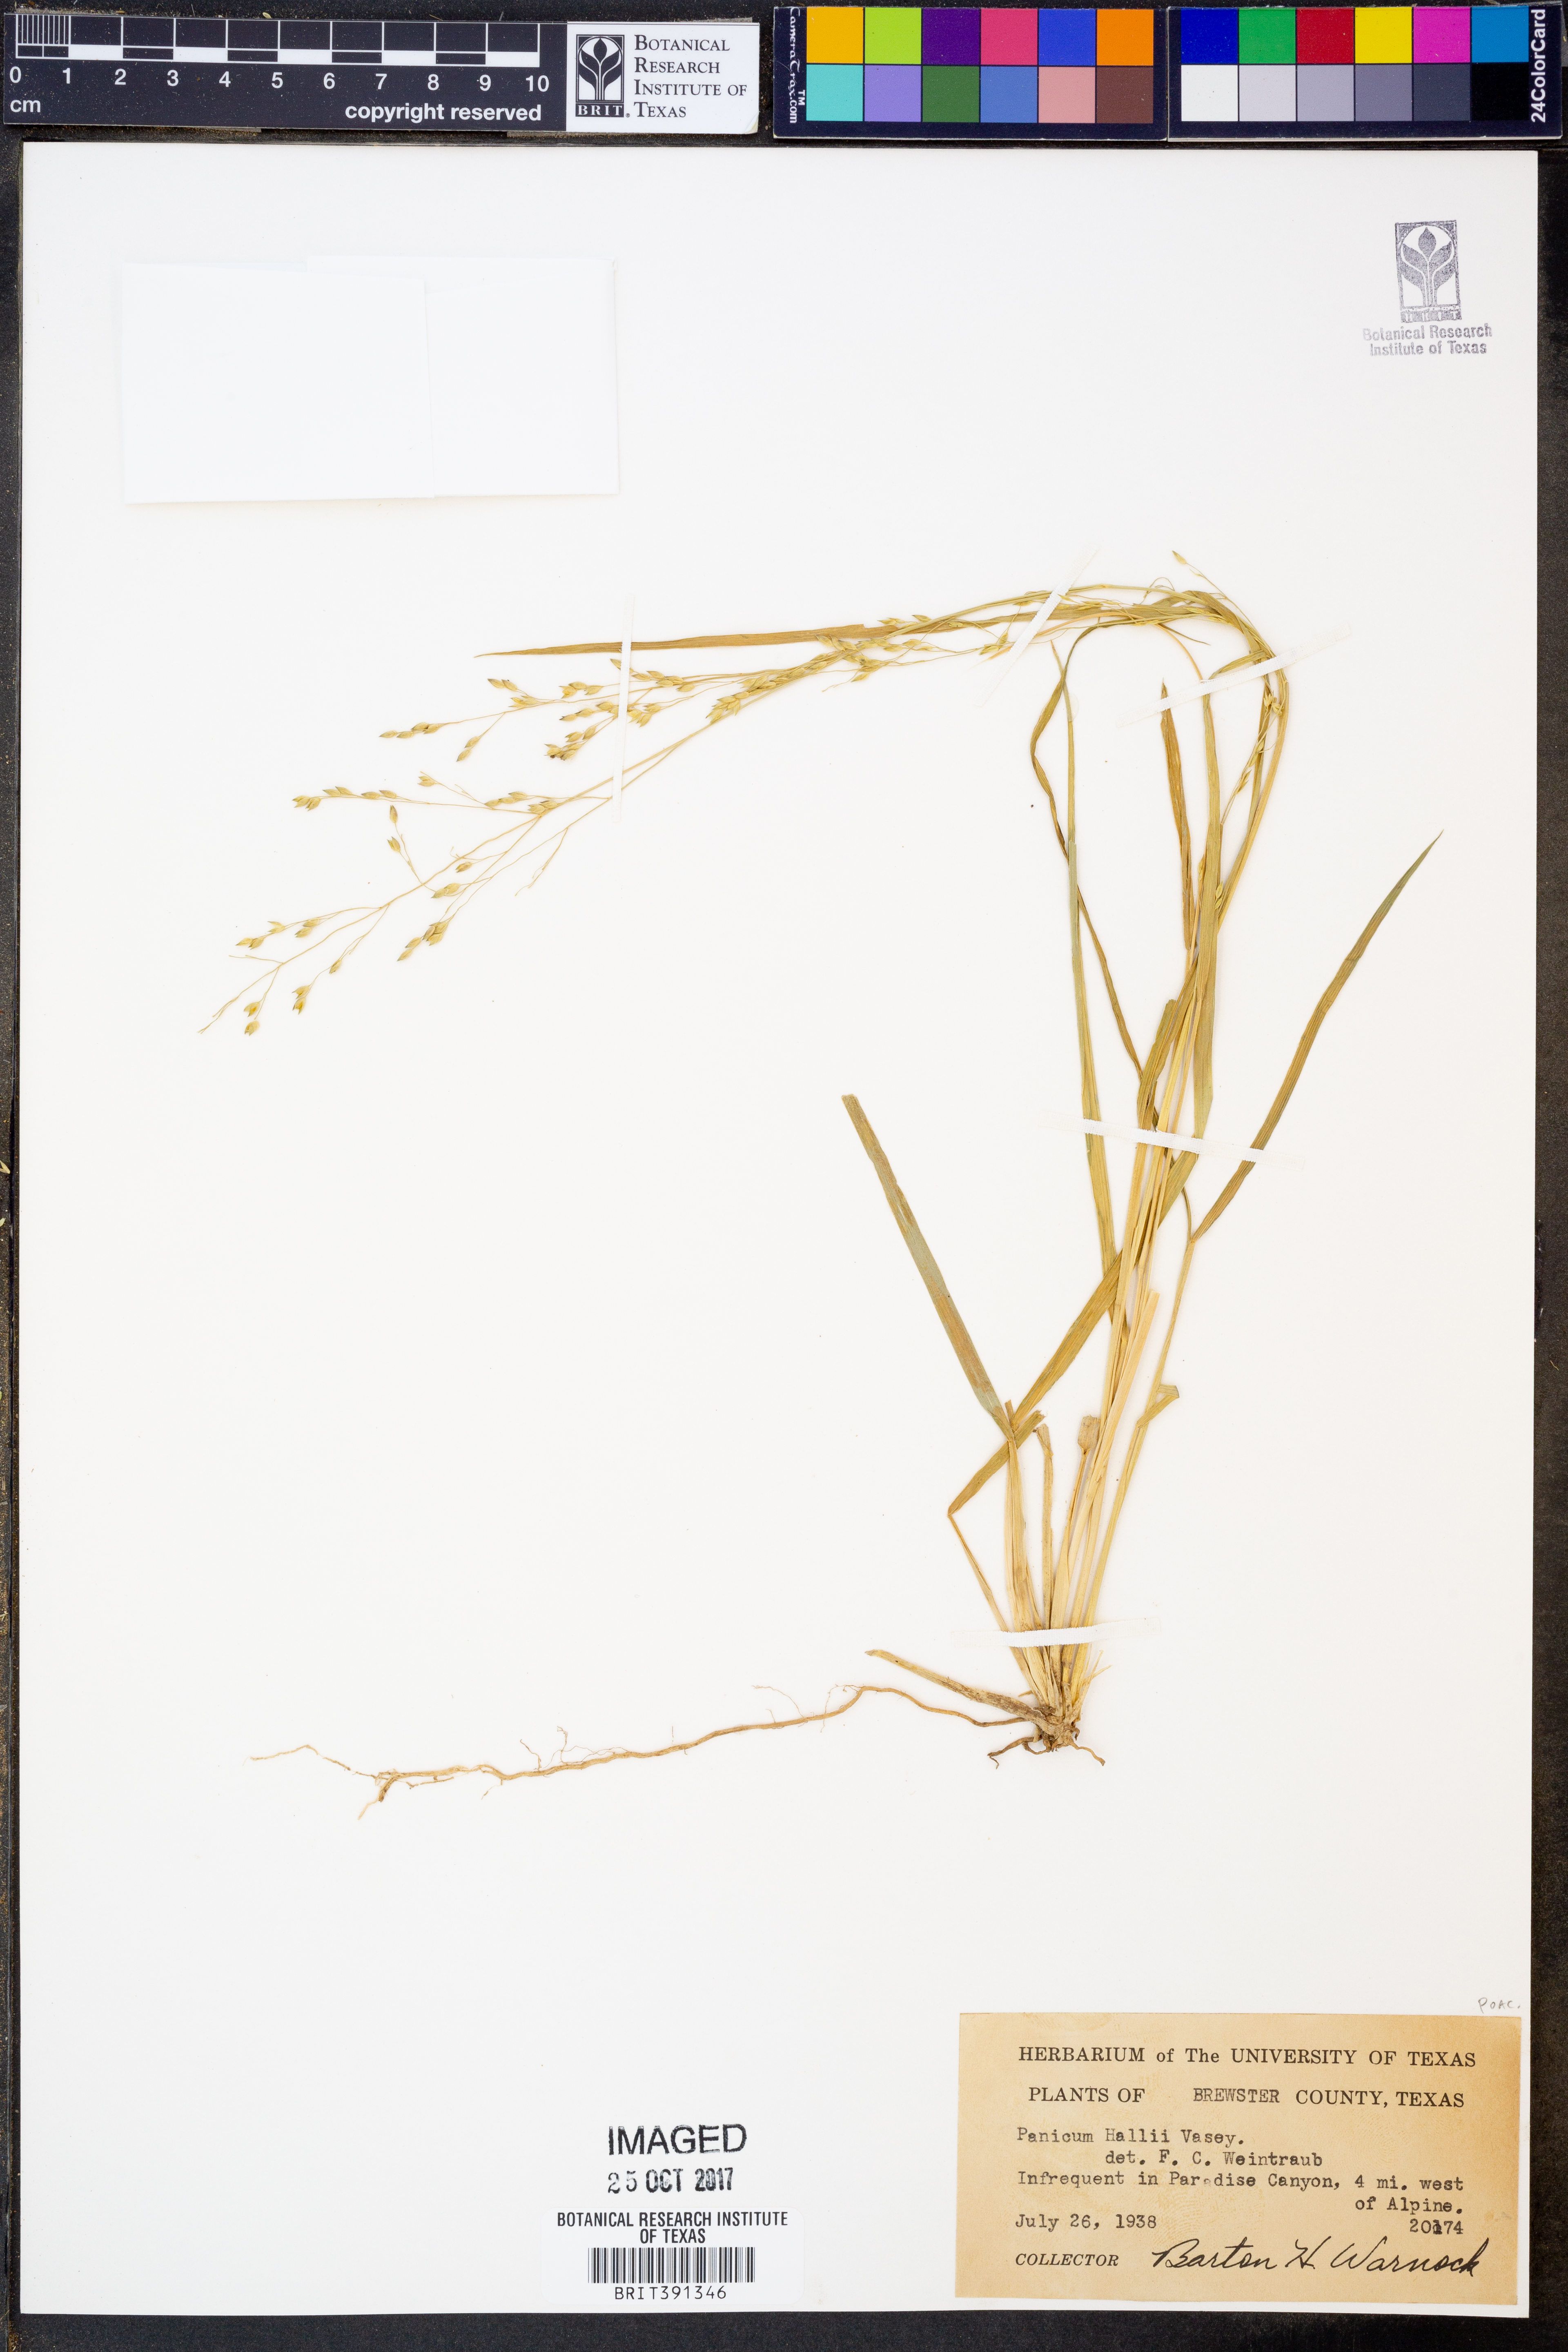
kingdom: Plantae
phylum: Tracheophyta
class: Liliopsida
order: Poales
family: Poaceae
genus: Panicum
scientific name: Panicum hallii
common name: Hall's witchgrass
